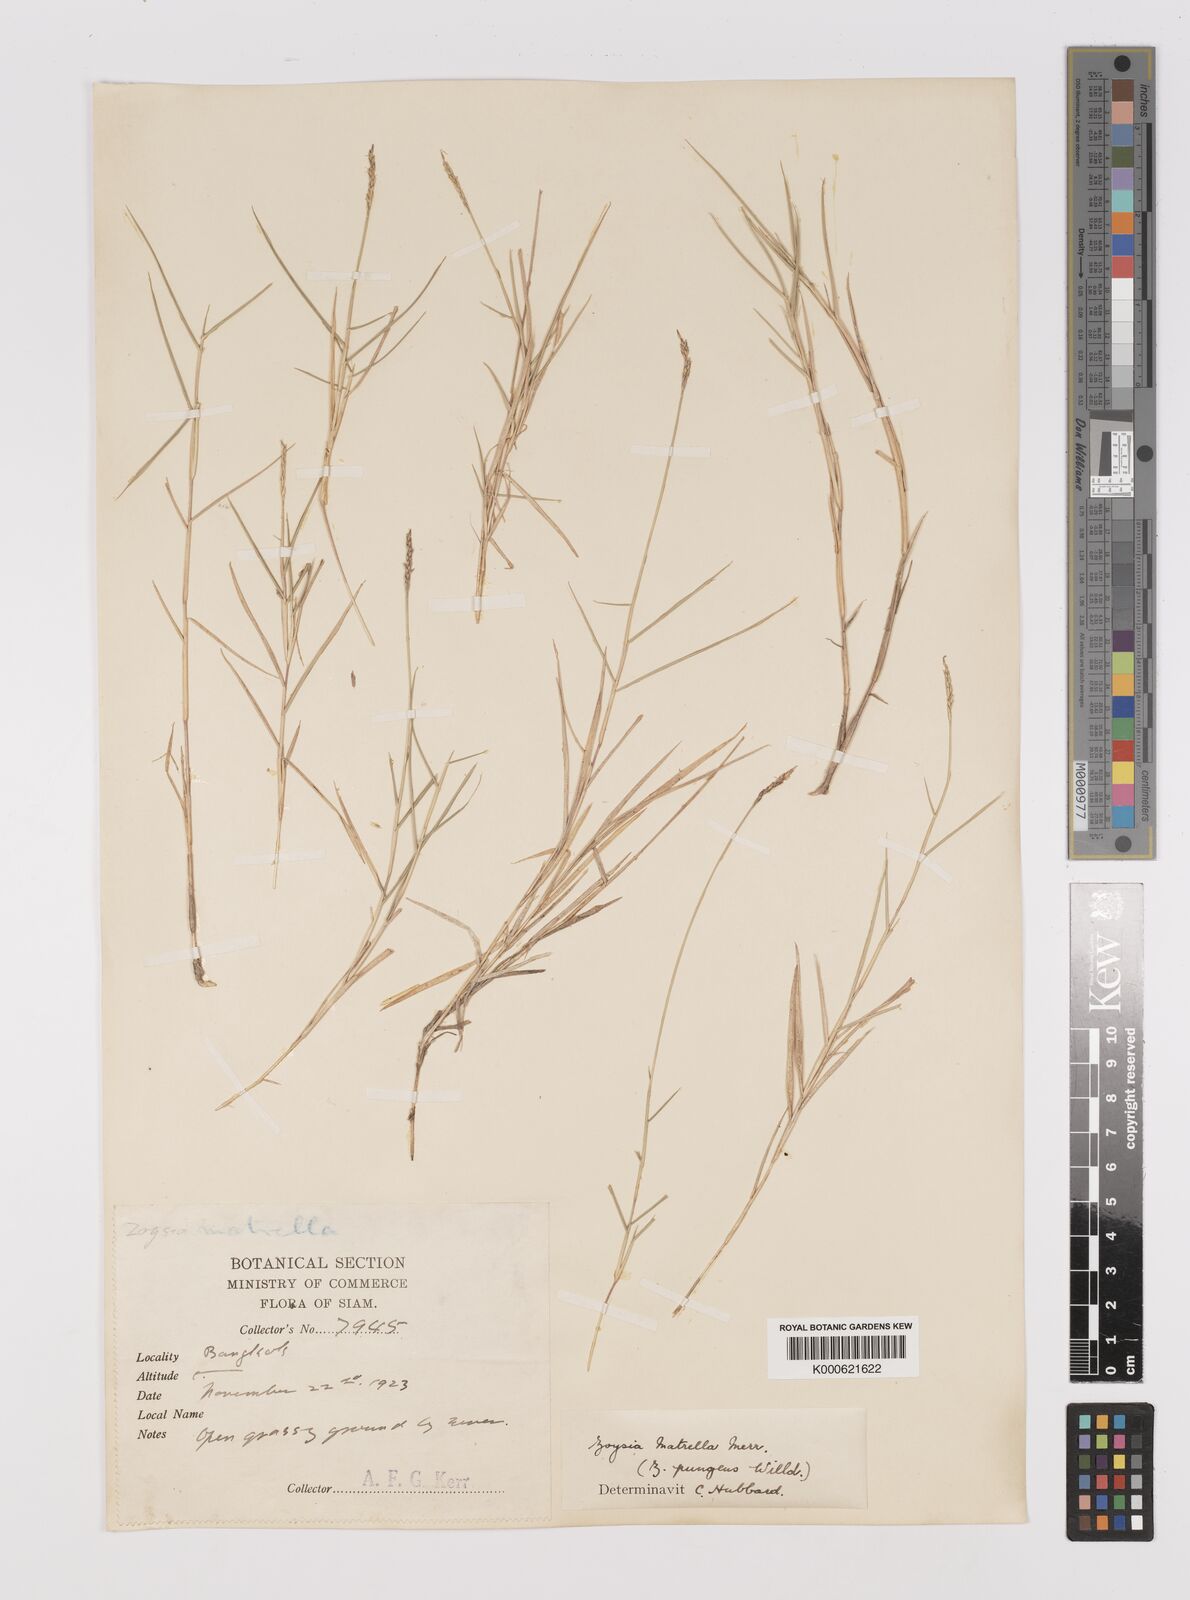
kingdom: Plantae
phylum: Tracheophyta
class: Liliopsida
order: Poales
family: Poaceae
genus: Zoysia
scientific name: Zoysia matrella
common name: Manila grass
